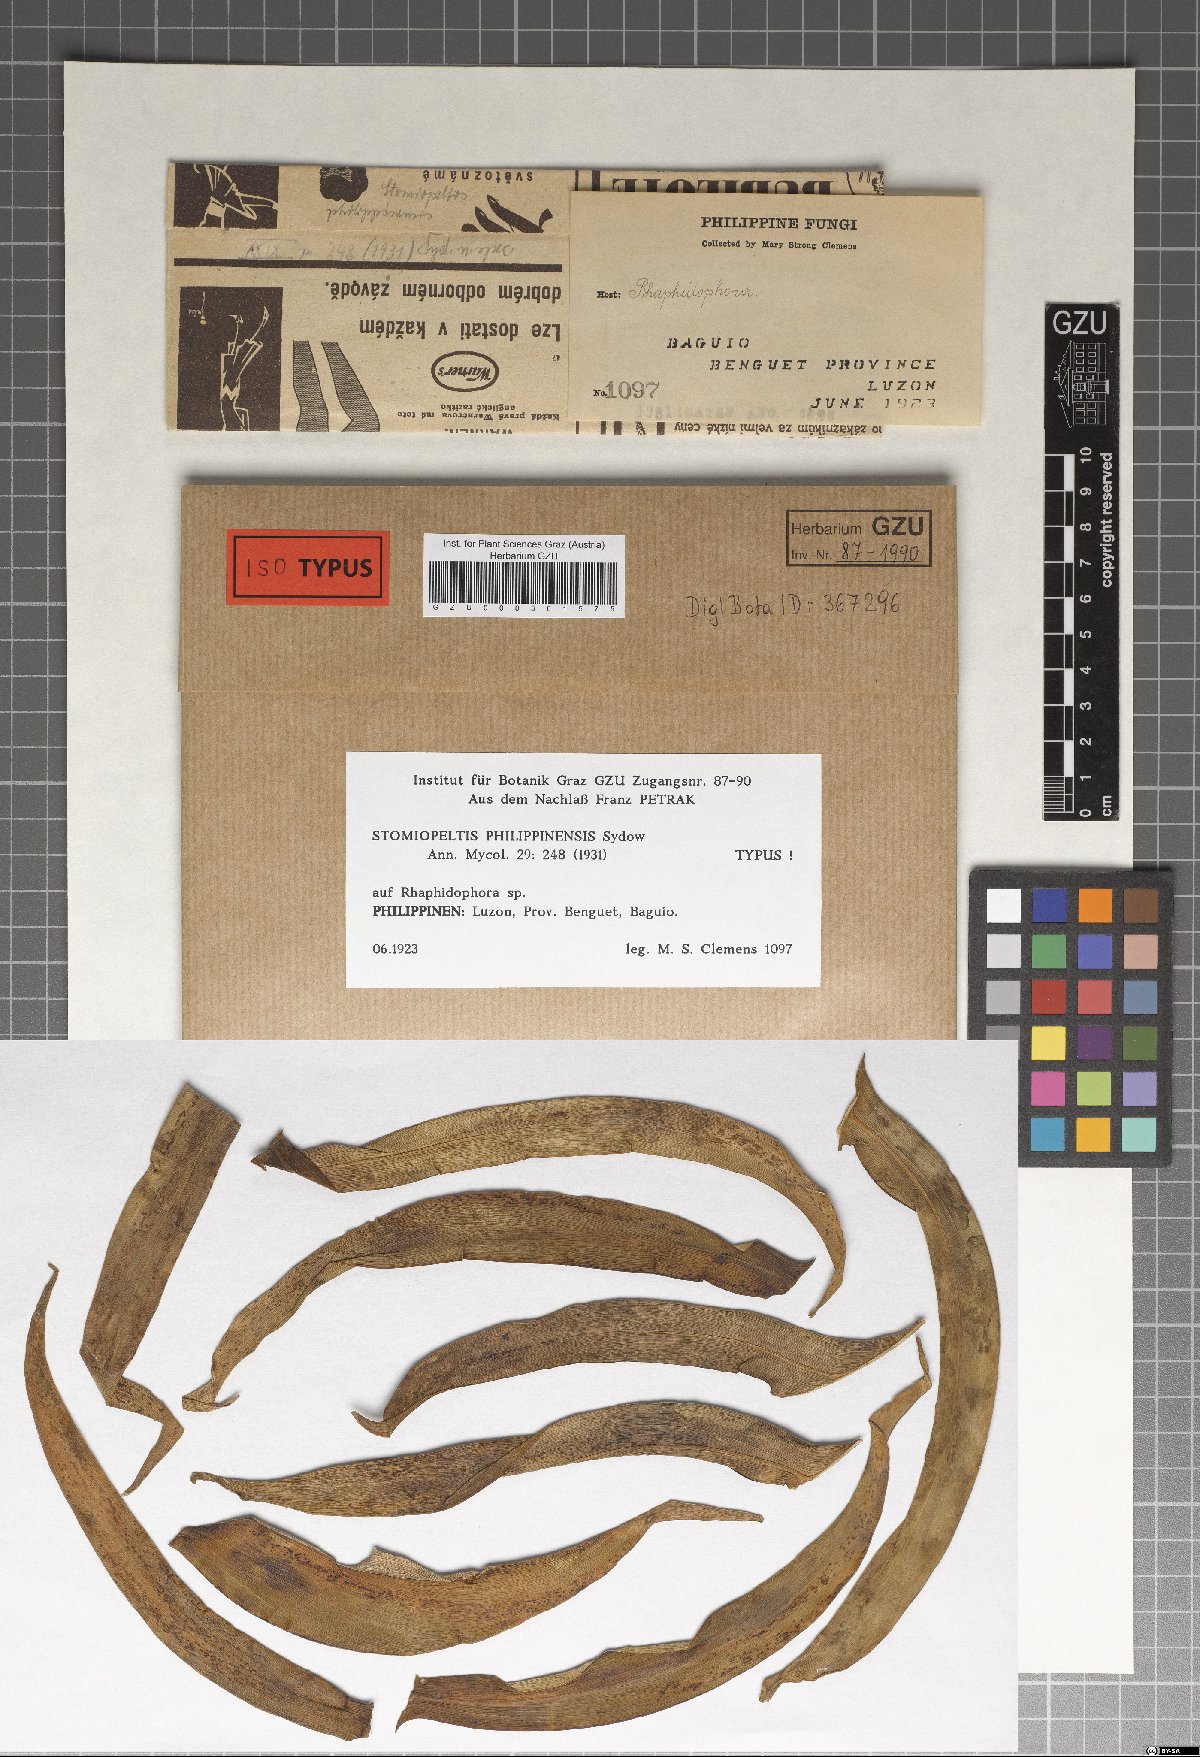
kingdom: Fungi
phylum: Ascomycota
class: Dothideomycetes
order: Microthyriales
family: Micropeltidaceae
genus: Stomiopeltis
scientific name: Stomiopeltis philippinensis
